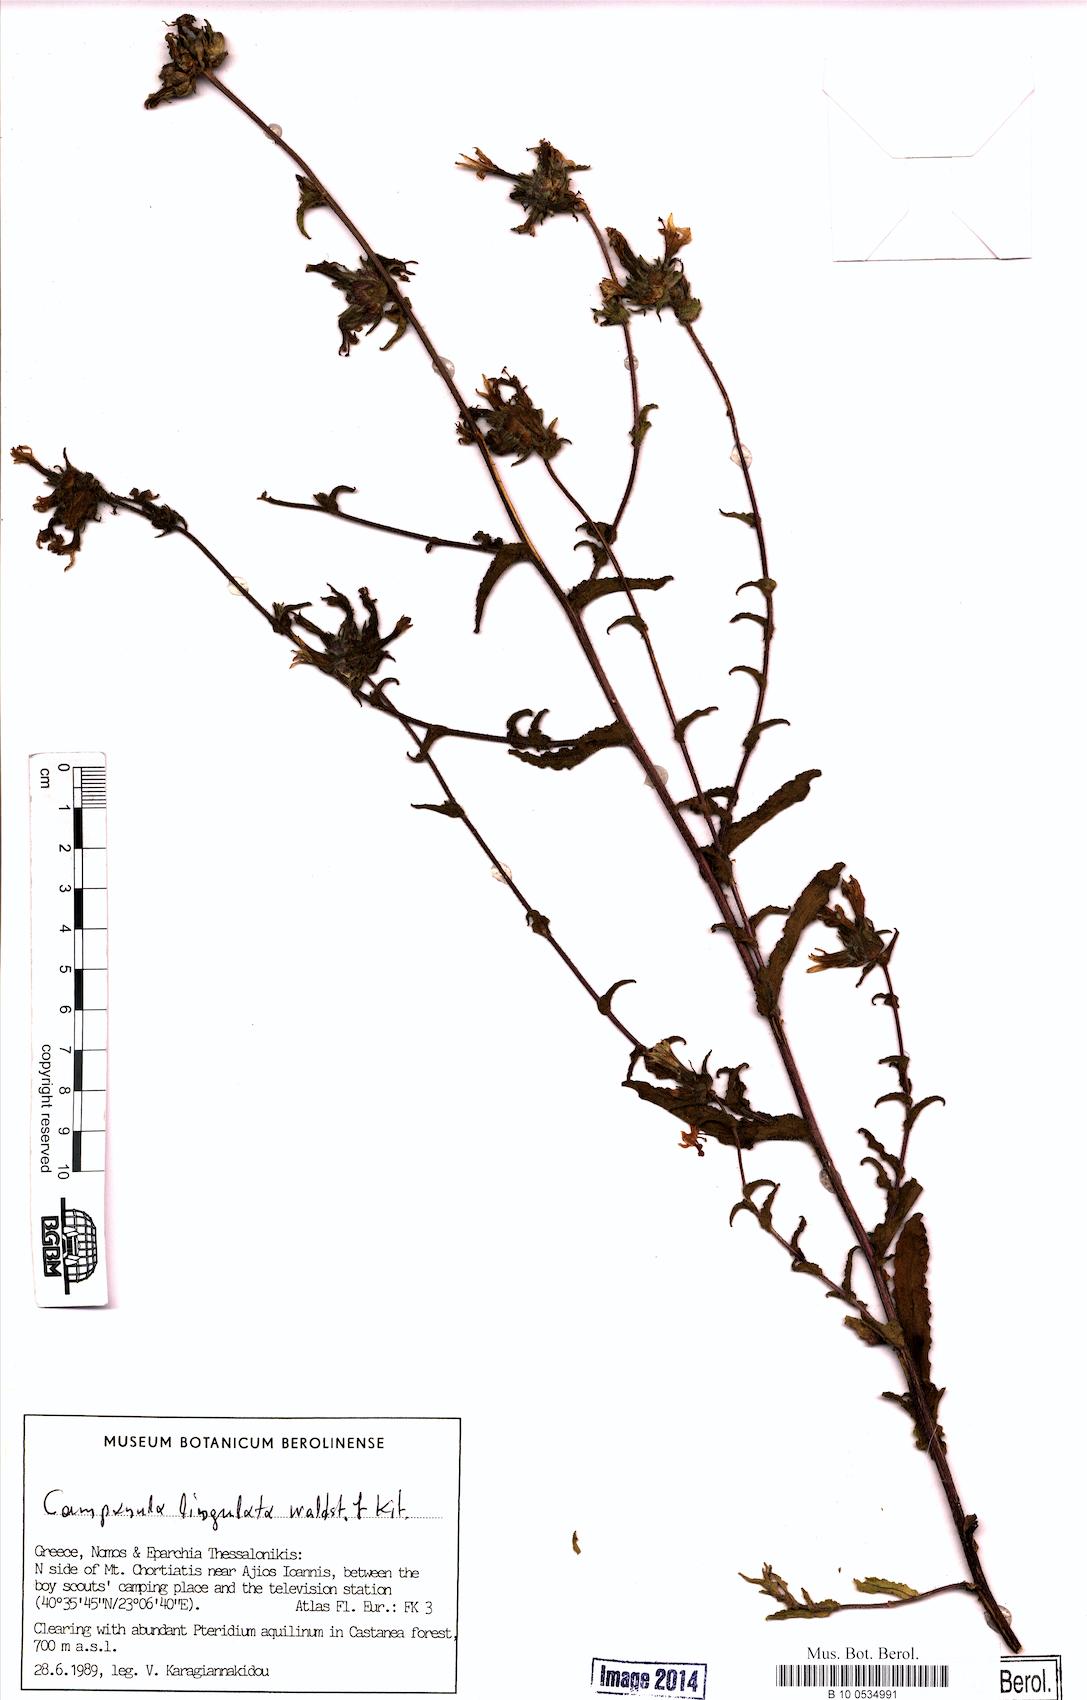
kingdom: Plantae
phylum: Tracheophyta
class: Magnoliopsida
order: Asterales
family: Campanulaceae
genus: Campanula
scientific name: Campanula lingulata
